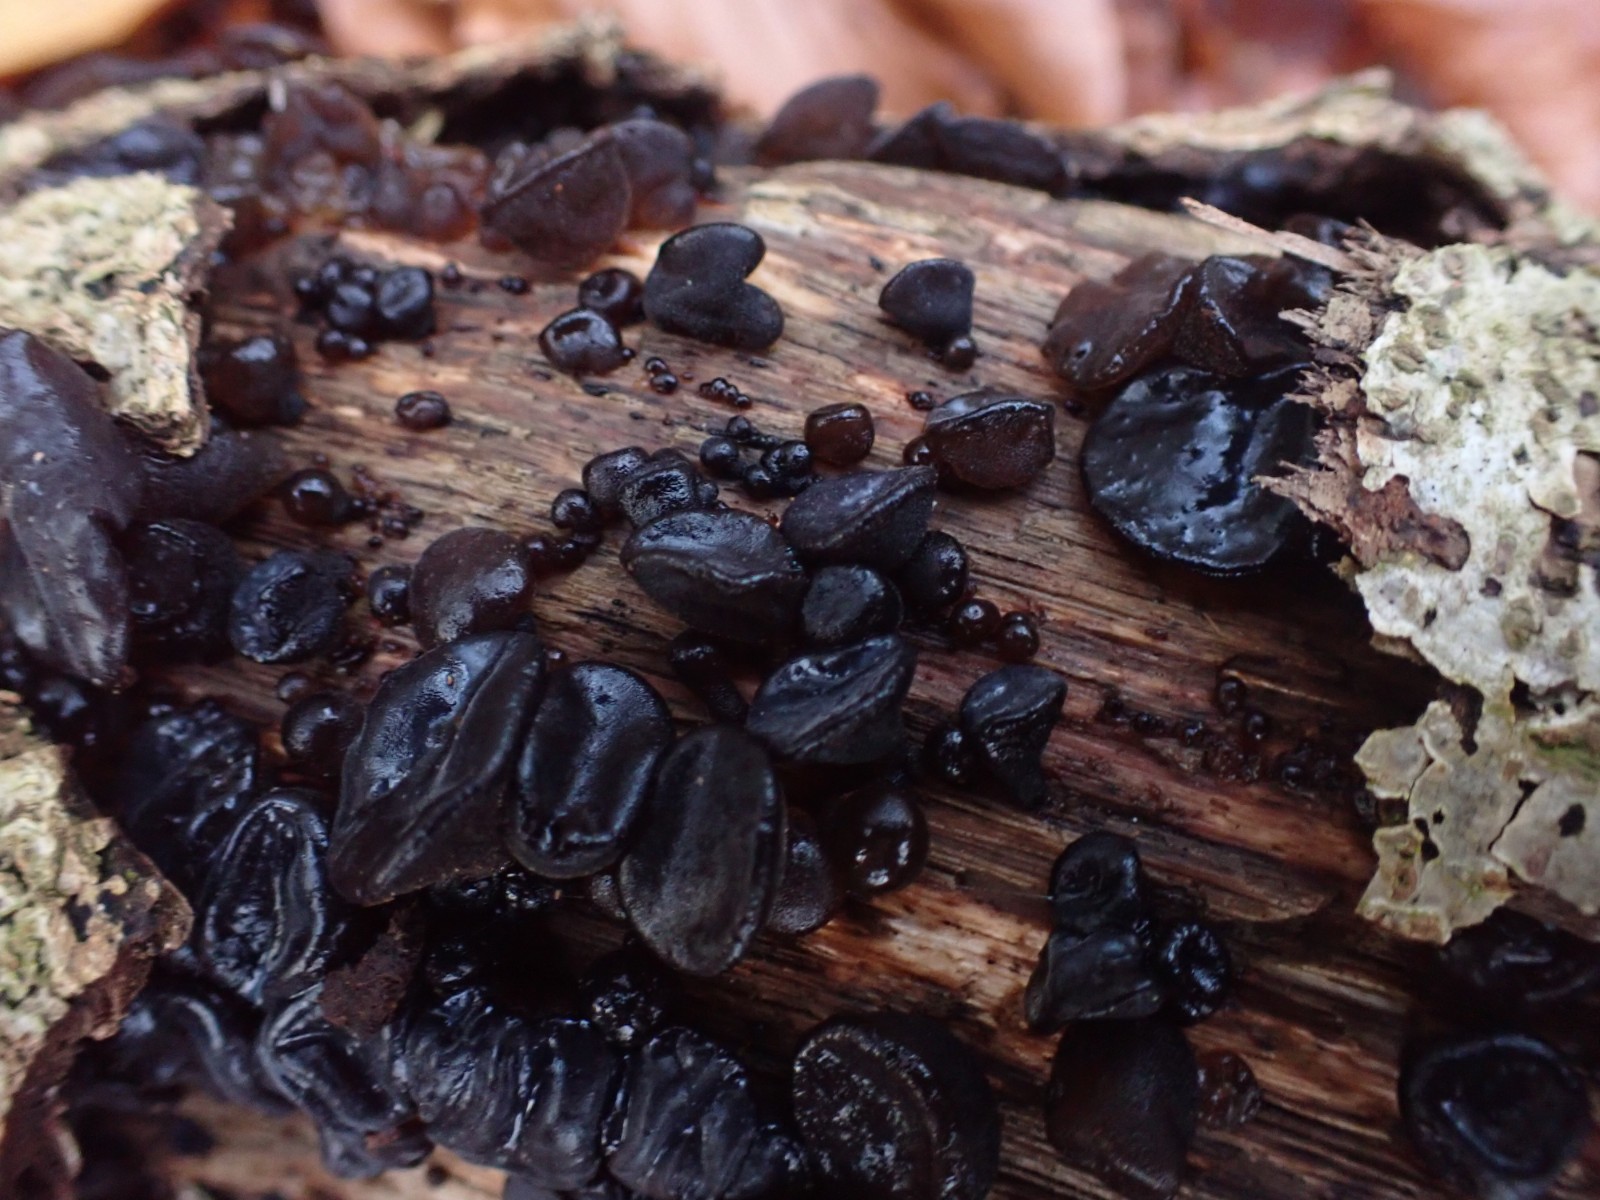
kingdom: Fungi
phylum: Basidiomycota
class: Agaricomycetes
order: Auriculariales
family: Auriculariaceae
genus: Exidia
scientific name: Exidia glandulosa
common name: ege-bævretop
